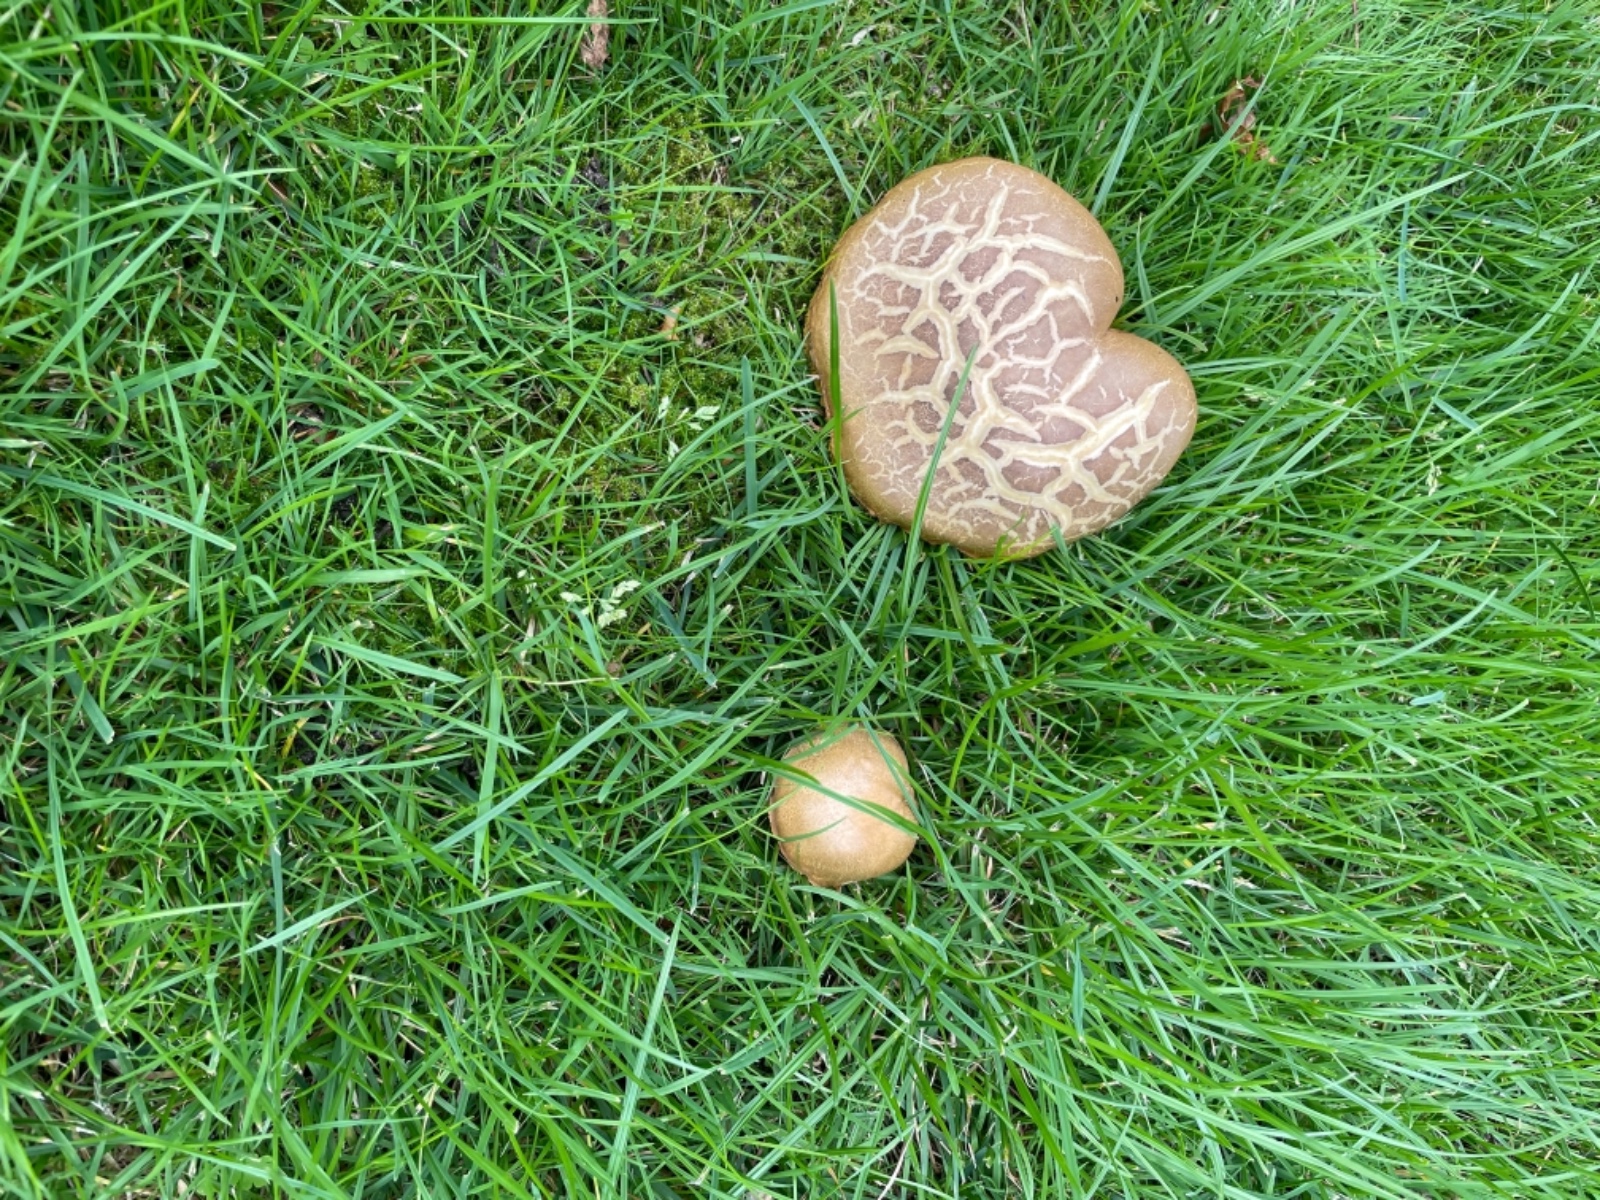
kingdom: Fungi
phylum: Basidiomycota
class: Agaricomycetes
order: Boletales
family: Boletaceae
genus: Hortiboletus
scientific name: Hortiboletus engelii
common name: fersken-rørhat
